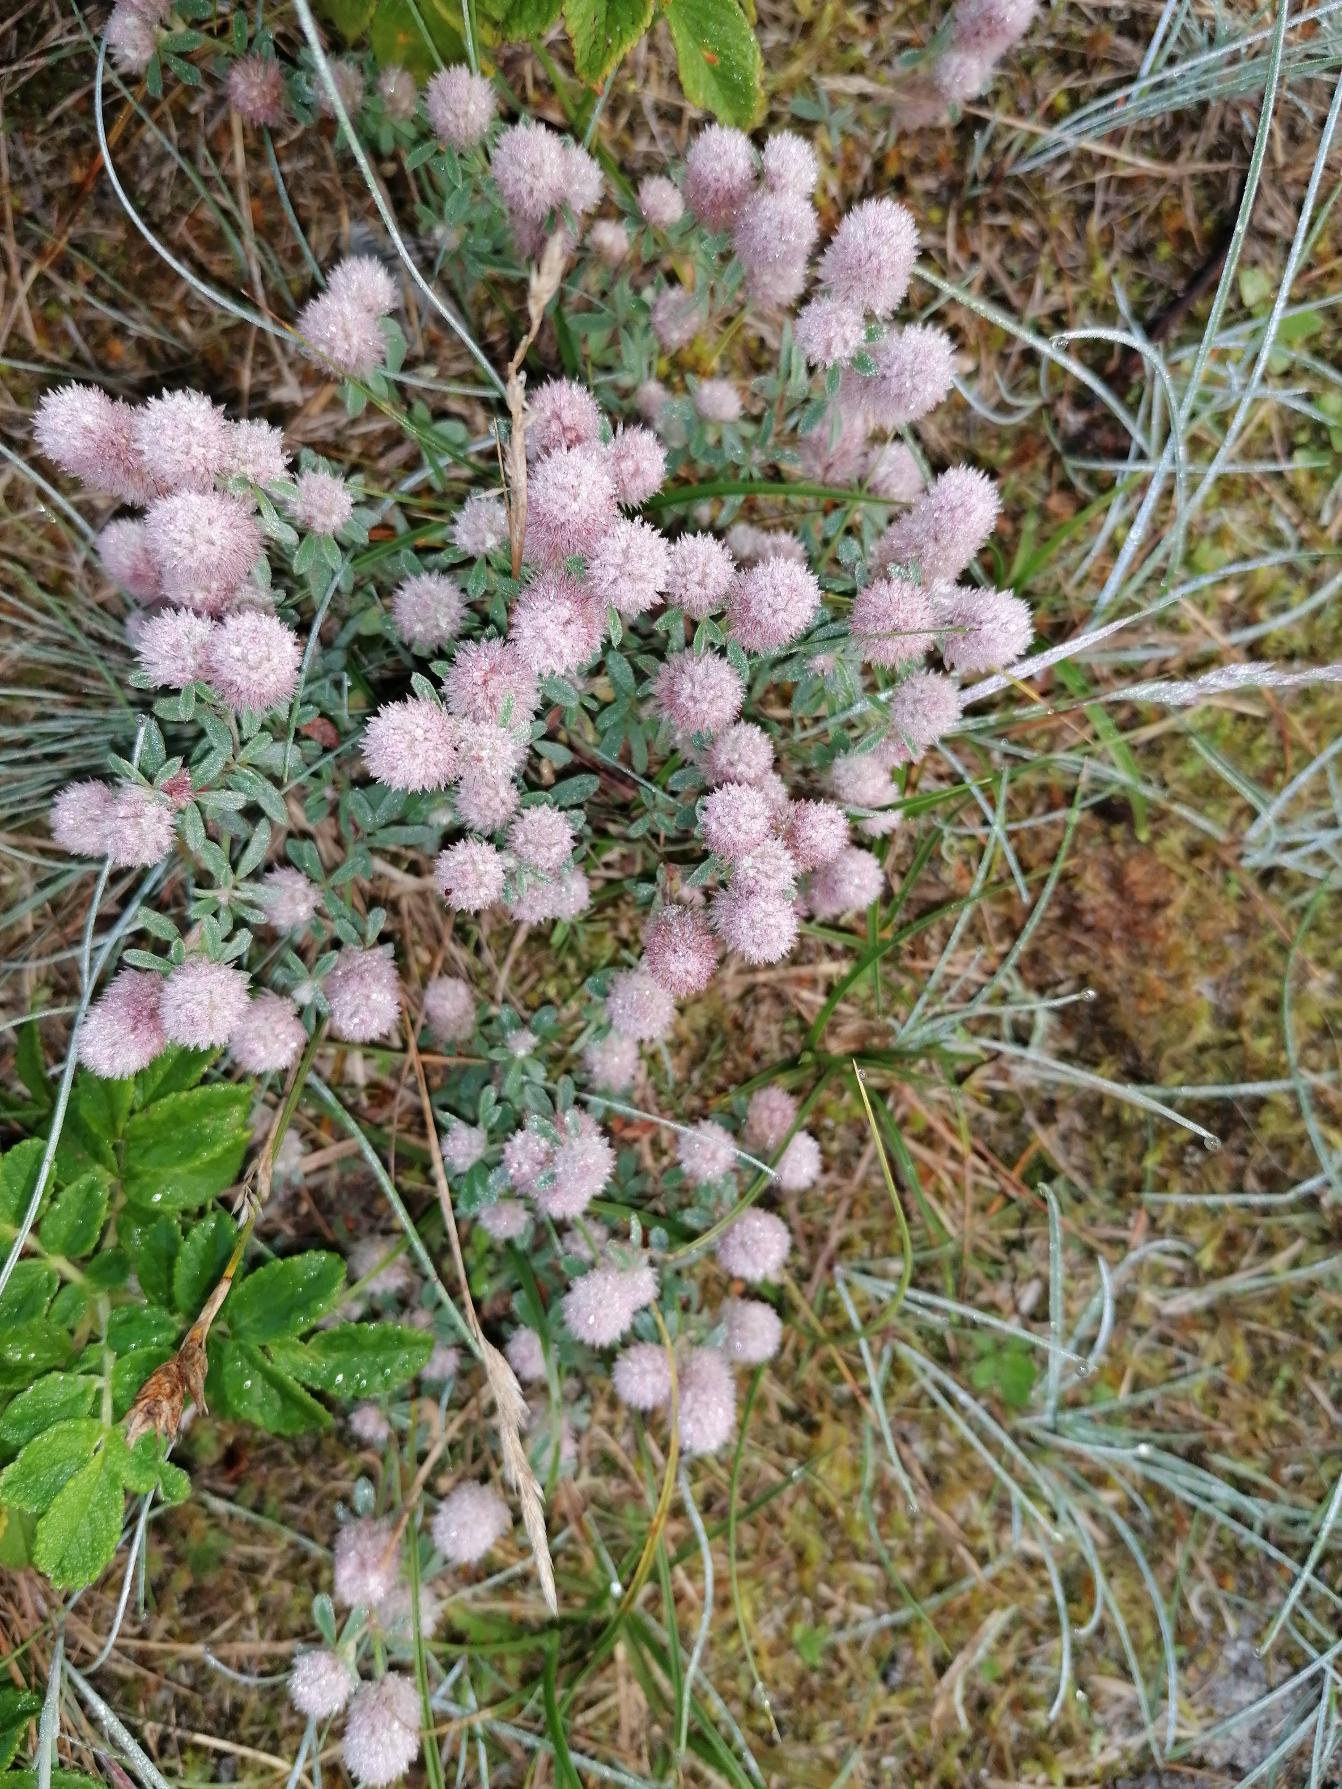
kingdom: Plantae
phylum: Tracheophyta
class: Magnoliopsida
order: Fabales
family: Fabaceae
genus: Trifolium
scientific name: Trifolium arvense
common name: Hare-kløver
